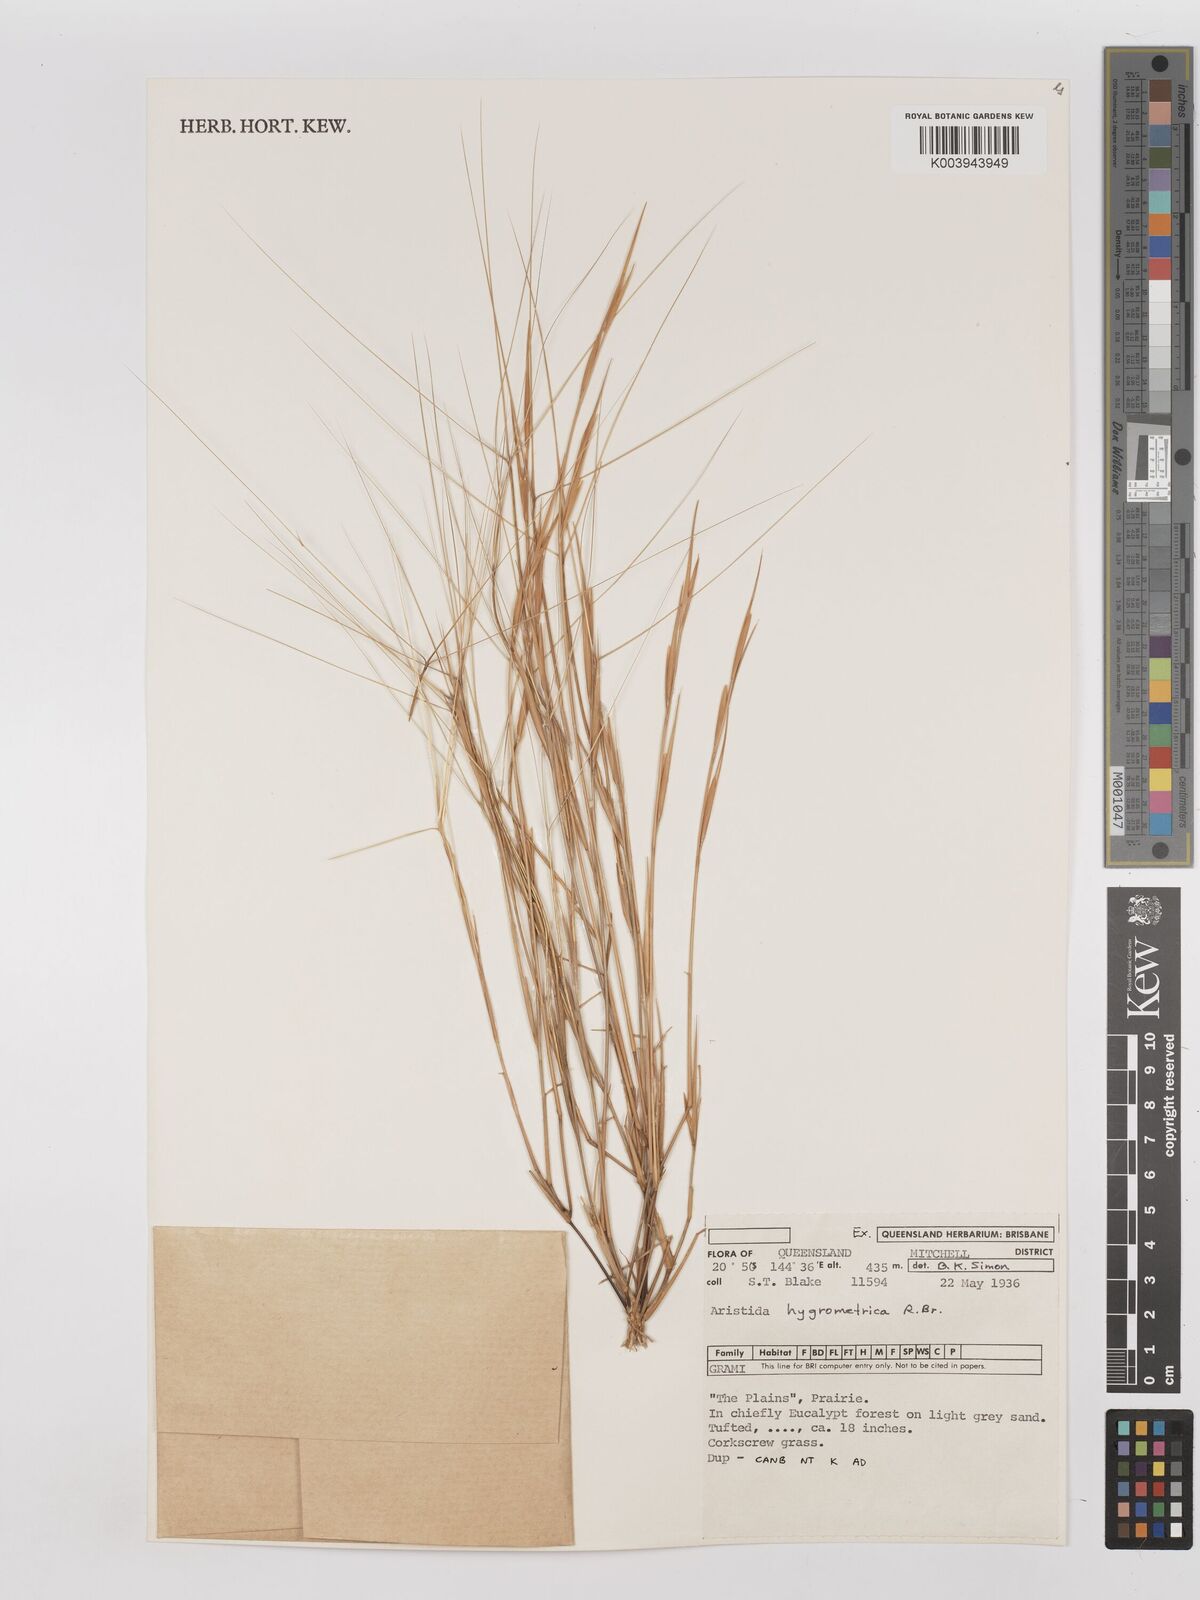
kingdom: Plantae
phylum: Tracheophyta
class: Liliopsida
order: Poales
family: Poaceae
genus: Aristida
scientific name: Aristida hygrometrica
